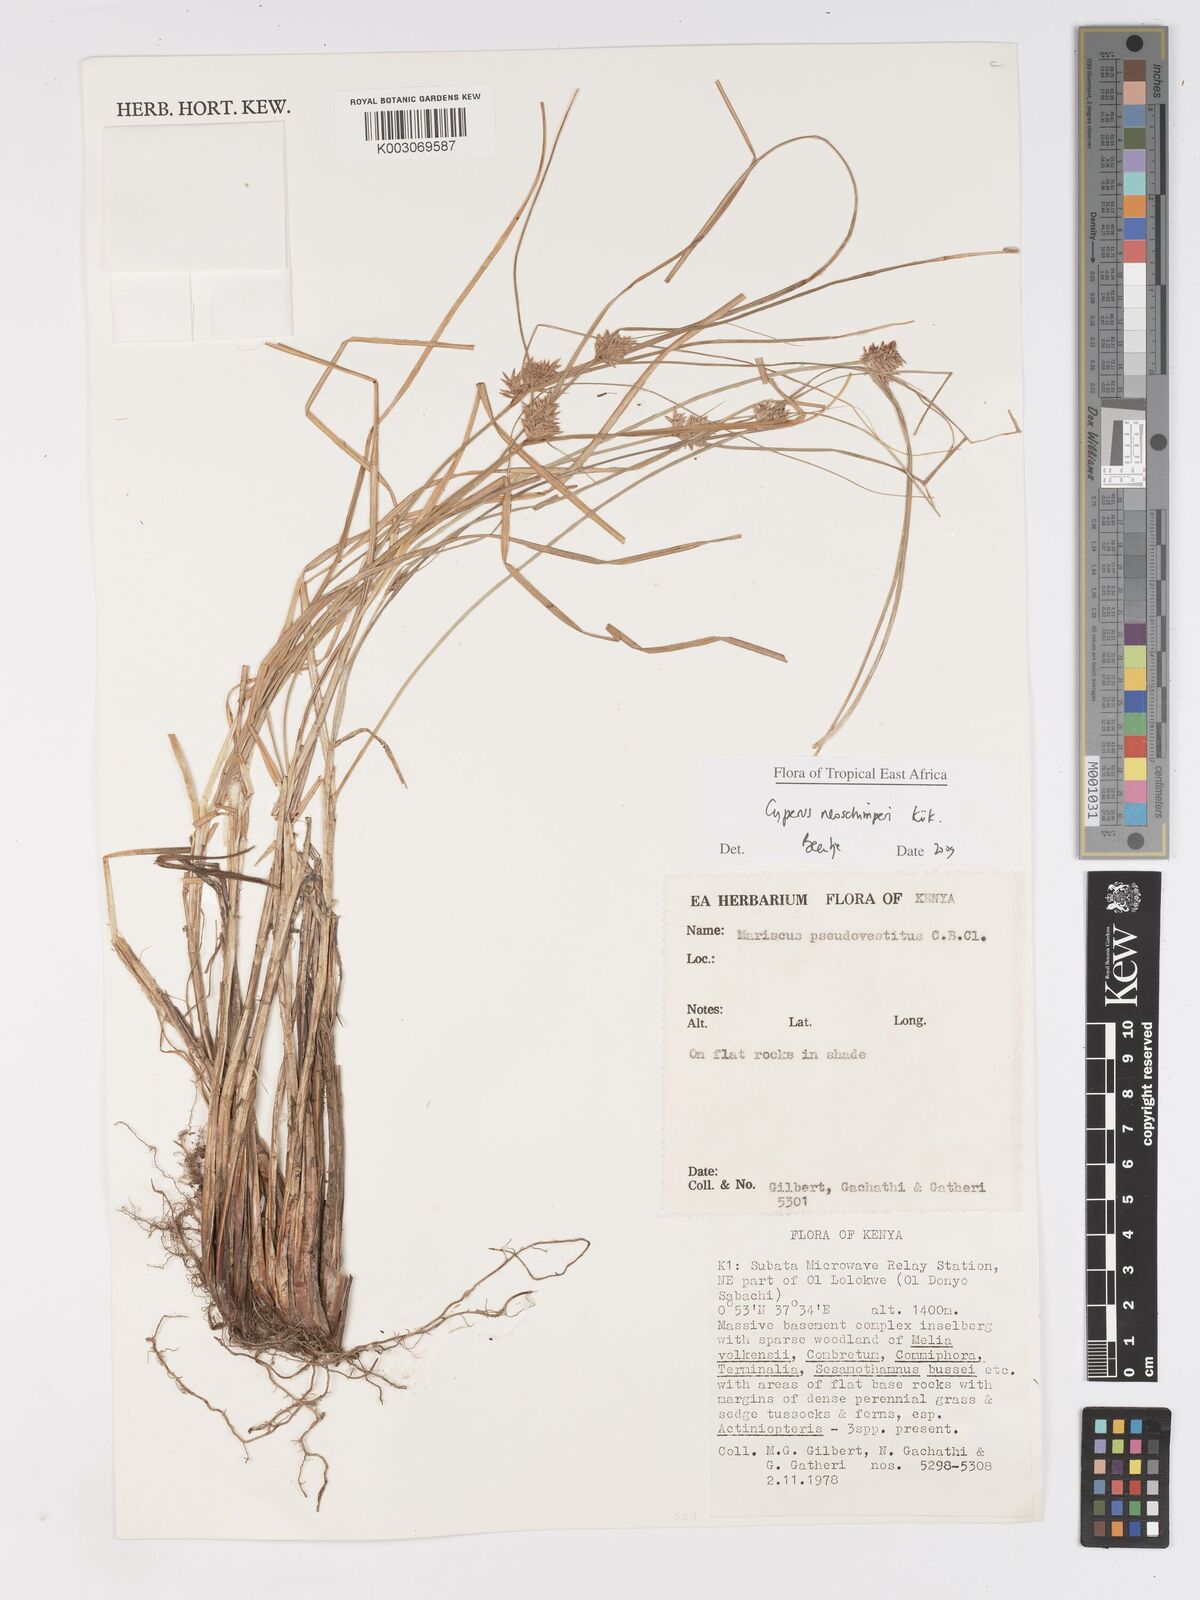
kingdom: Plantae
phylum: Tracheophyta
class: Liliopsida
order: Poales
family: Cyperaceae
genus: Cyperus
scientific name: Cyperus cruentus
